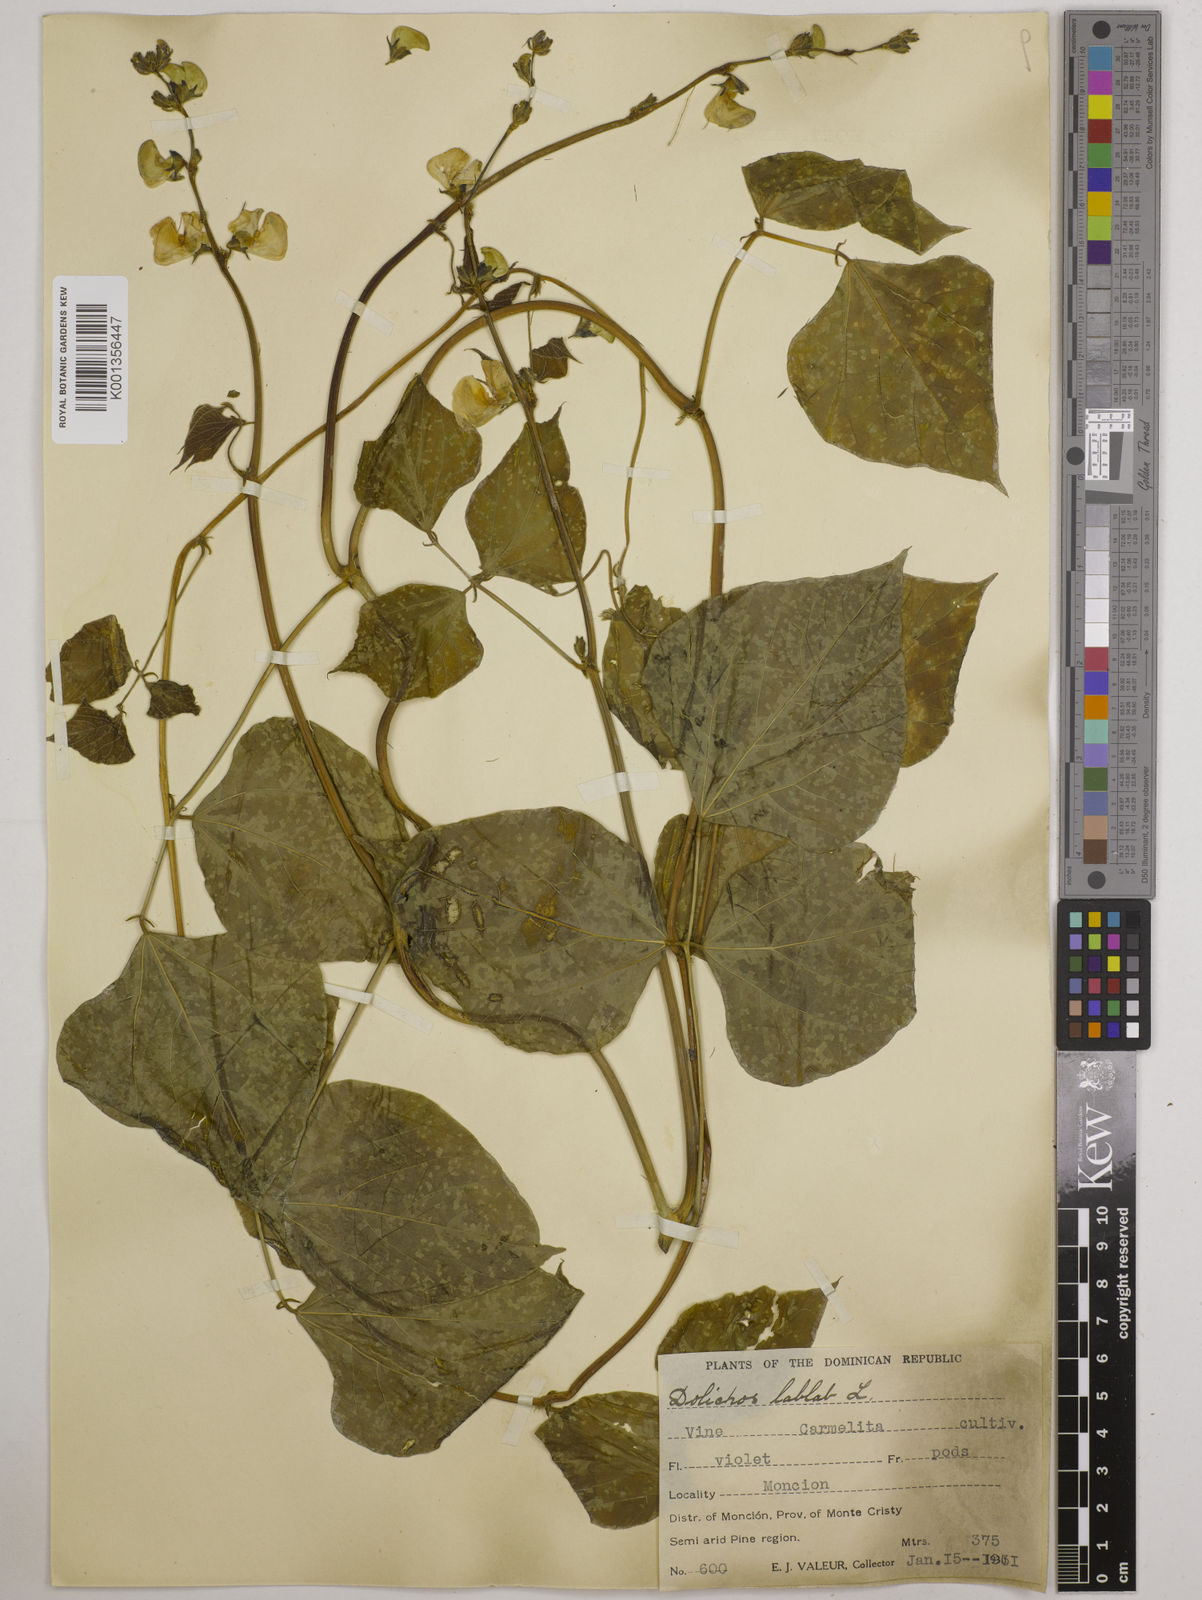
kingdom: Plantae
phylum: Tracheophyta
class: Magnoliopsida
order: Fabales
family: Fabaceae
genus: Lablab
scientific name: Lablab purpureus
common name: Lablab-bean
